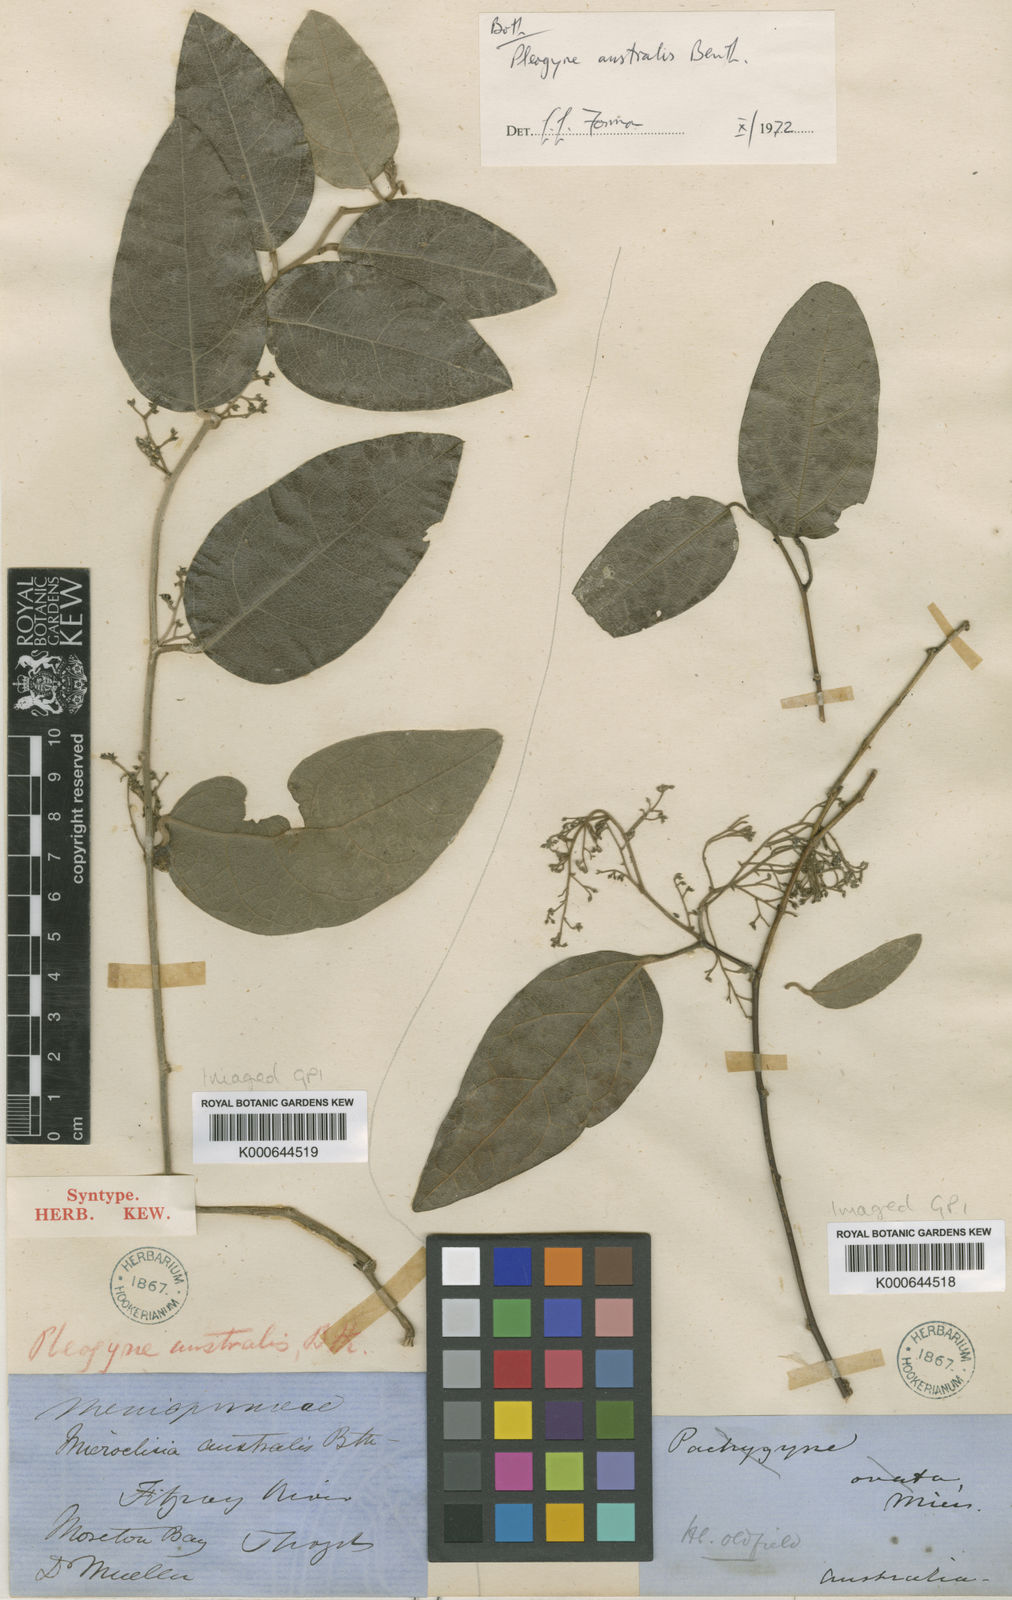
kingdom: Plantae
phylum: Tracheophyta
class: Magnoliopsida
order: Ranunculales
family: Menispermaceae
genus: Pleogyne
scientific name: Pleogyne australis
